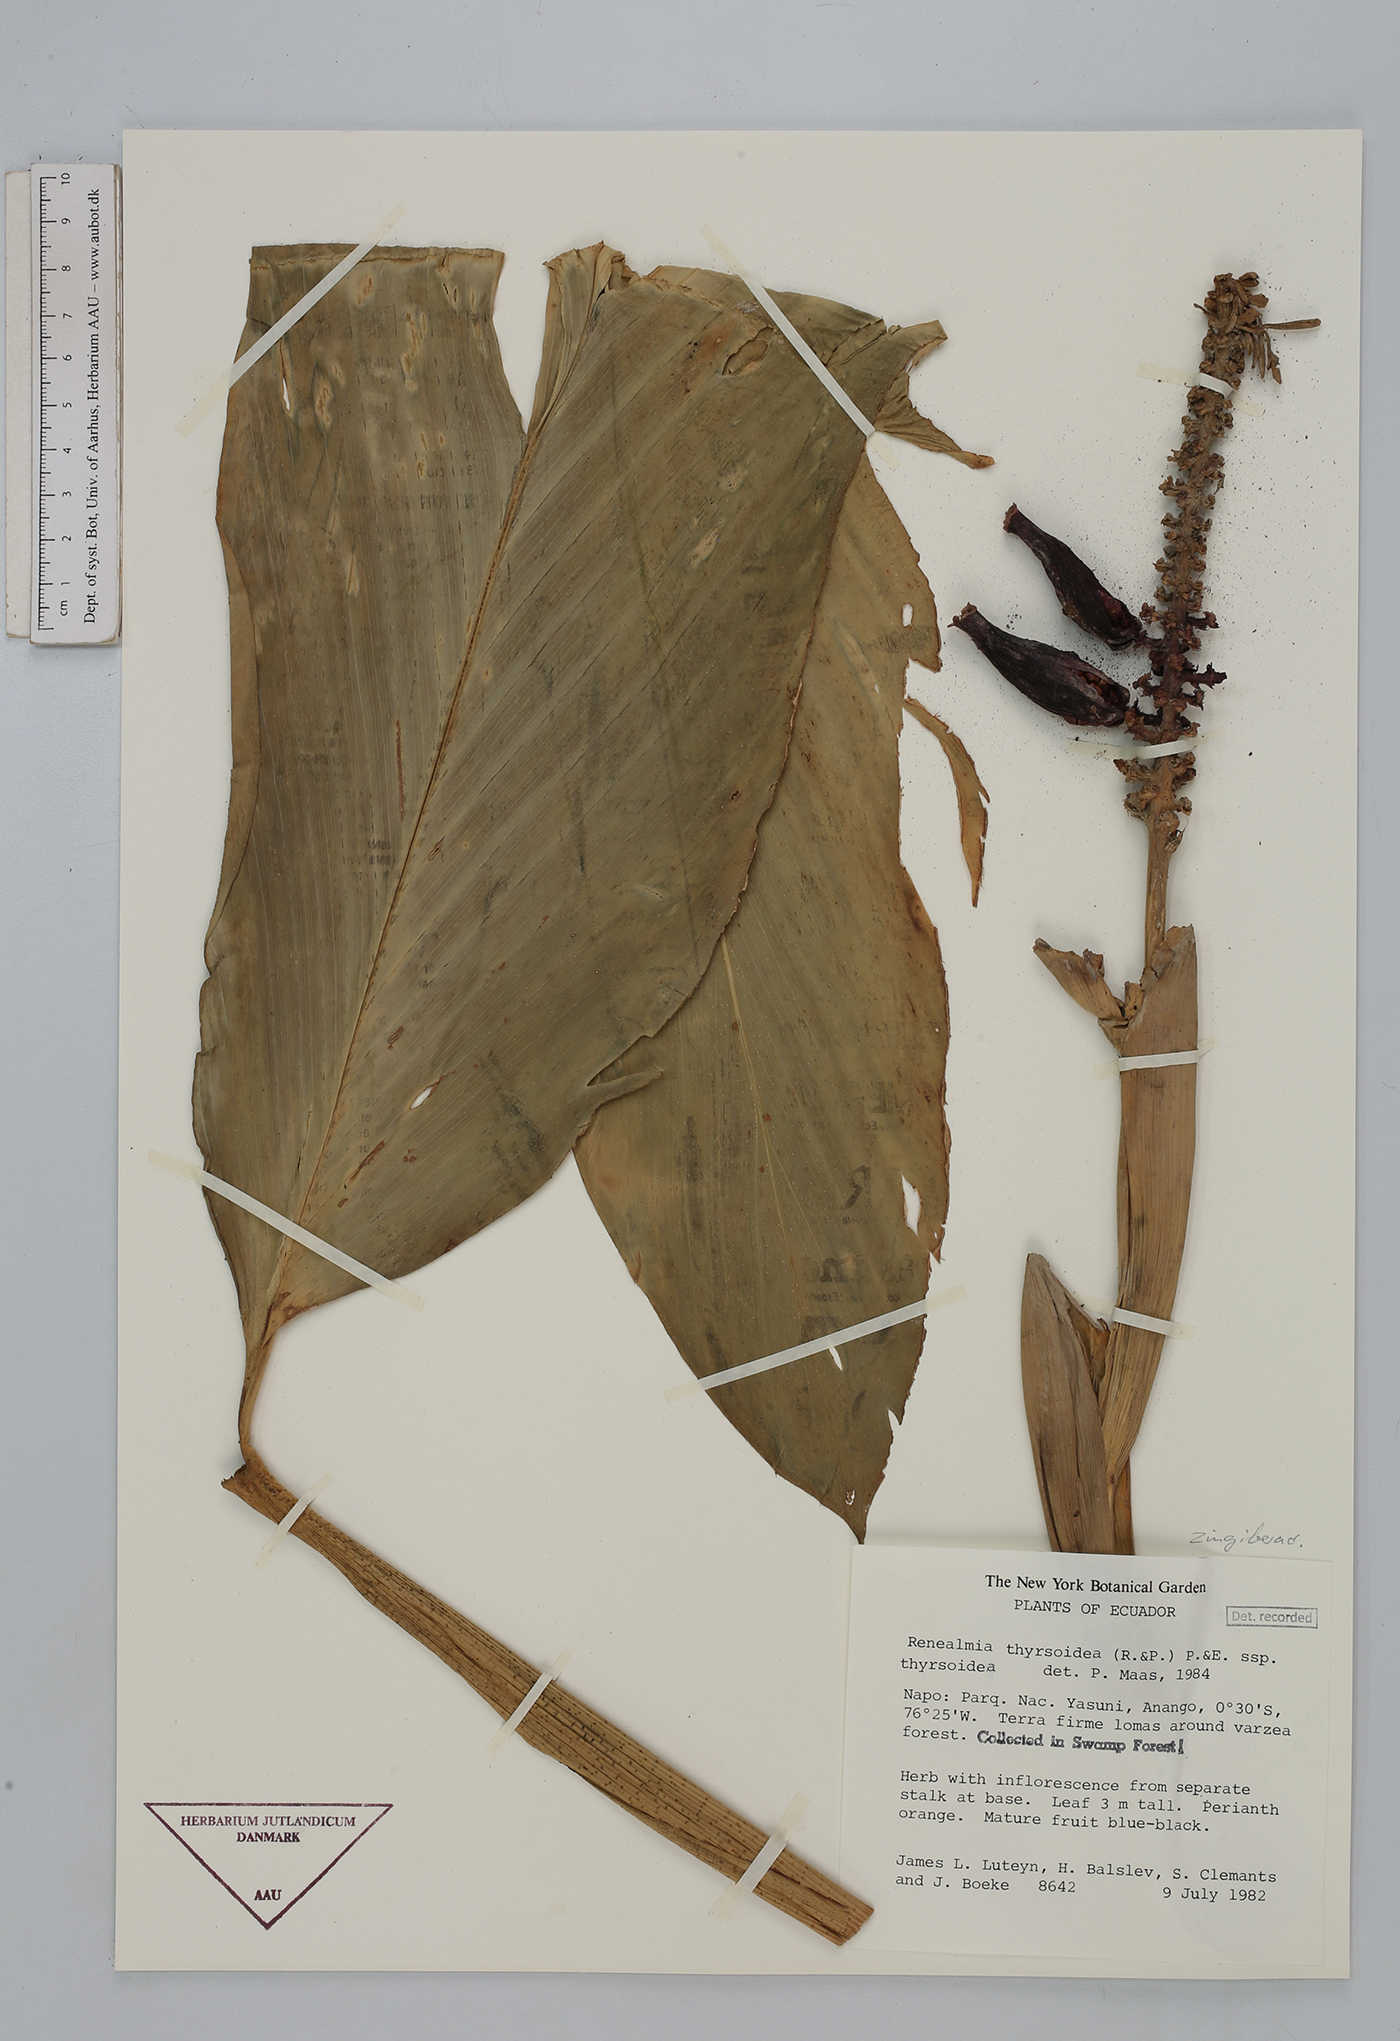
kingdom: Plantae
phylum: Tracheophyta
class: Liliopsida
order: Zingiberales
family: Zingiberaceae
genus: Renealmia
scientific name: Renealmia thyrsoidea
